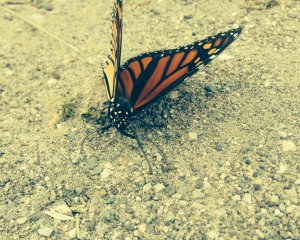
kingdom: Animalia
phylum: Arthropoda
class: Insecta
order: Lepidoptera
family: Nymphalidae
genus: Danaus
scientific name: Danaus plexippus
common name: Monarch
